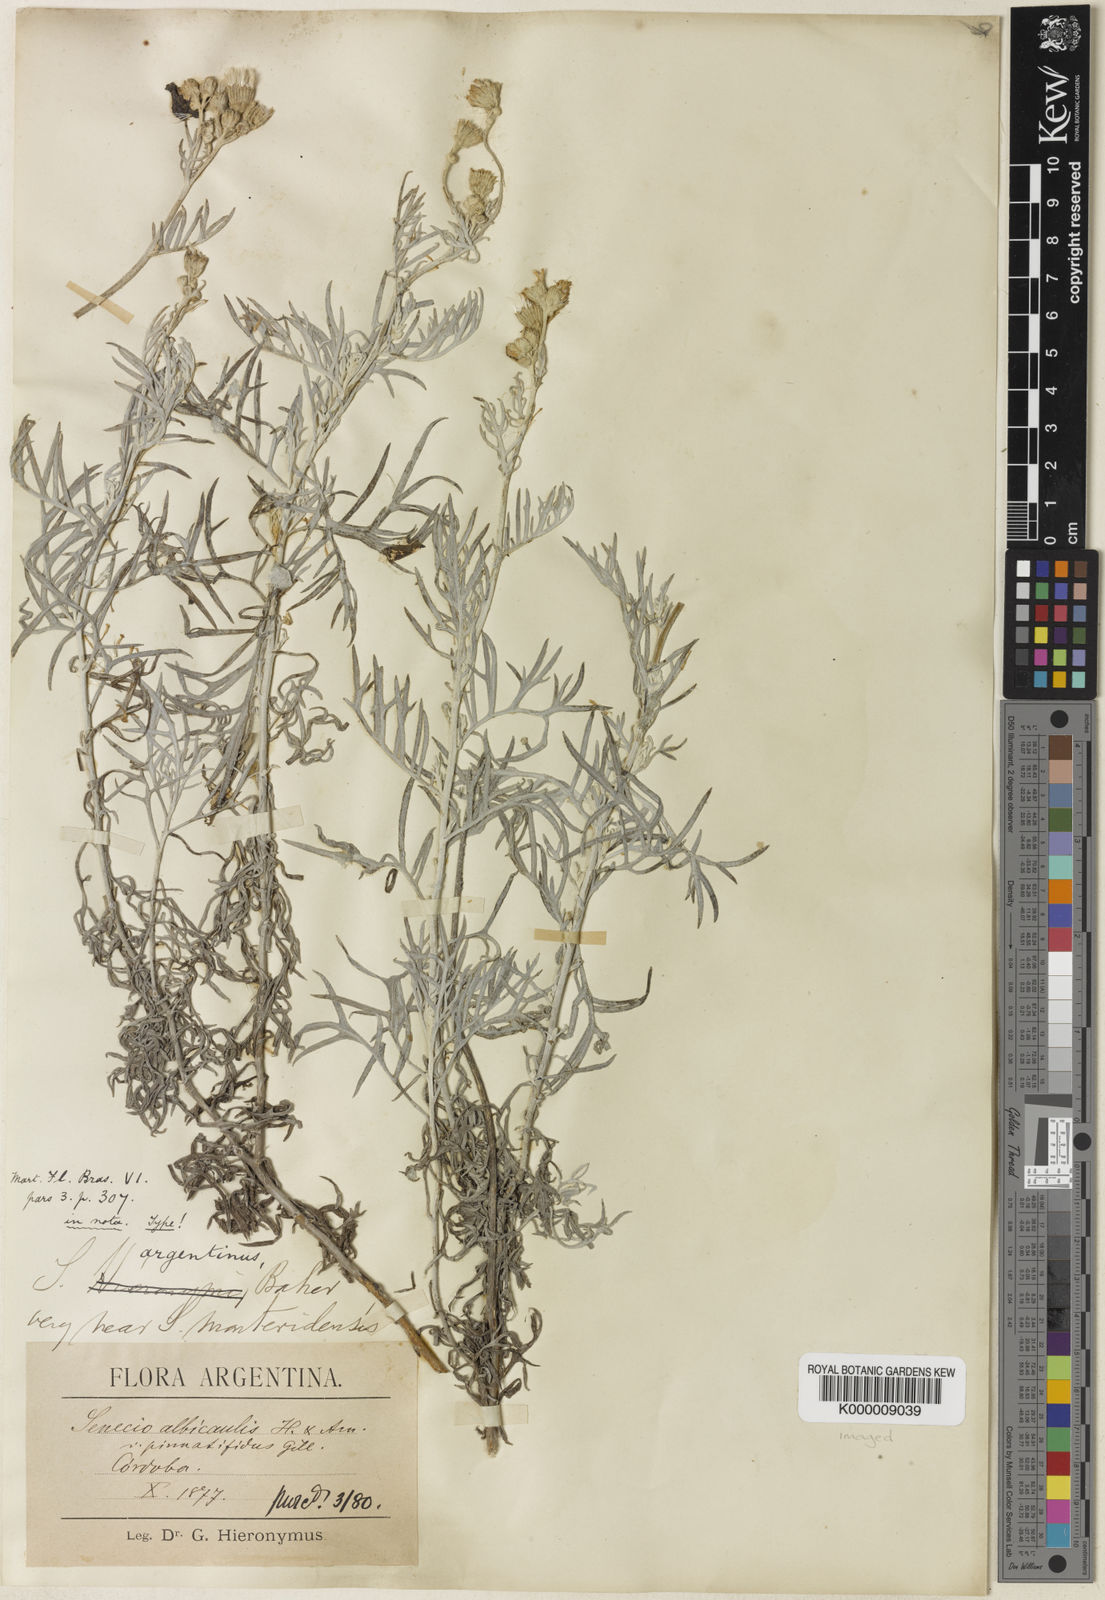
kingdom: Plantae
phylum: Tracheophyta
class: Magnoliopsida
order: Asterales
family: Asteraceae
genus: Senecio
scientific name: Senecio vira-vira
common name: Dusty-miller
